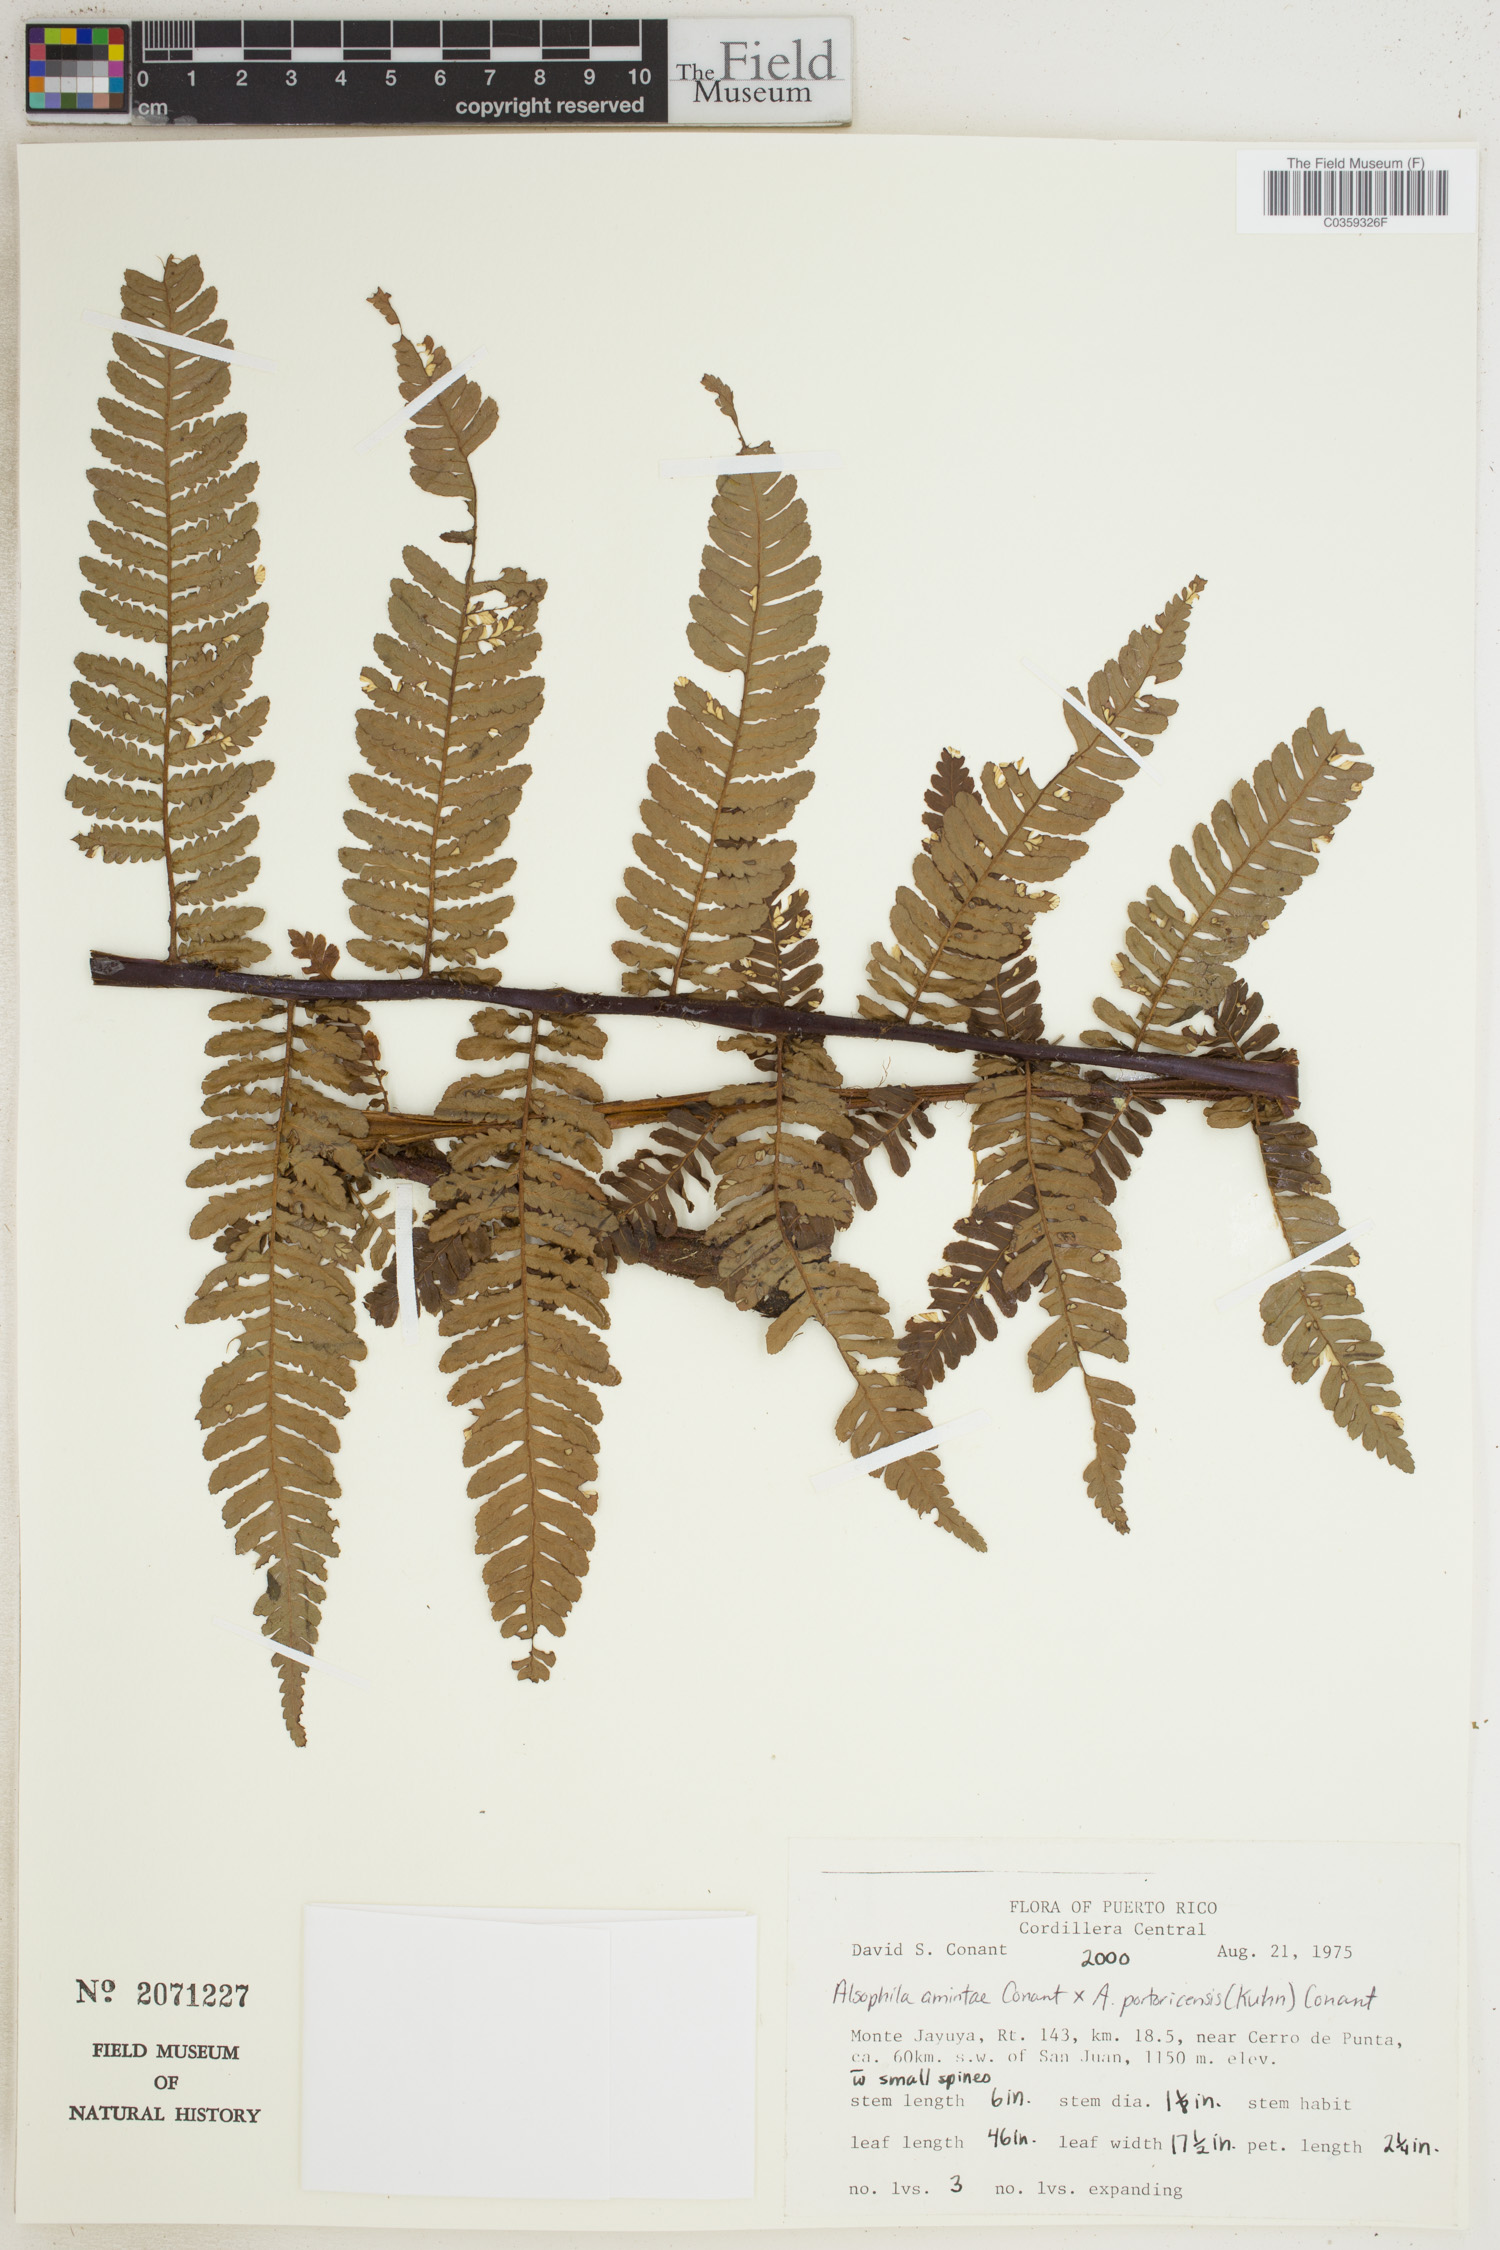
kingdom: Plantae
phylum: Tracheophyta
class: Polypodiopsida
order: Cyatheales
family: Cyatheaceae
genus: Alsophila
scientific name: Alsophila
